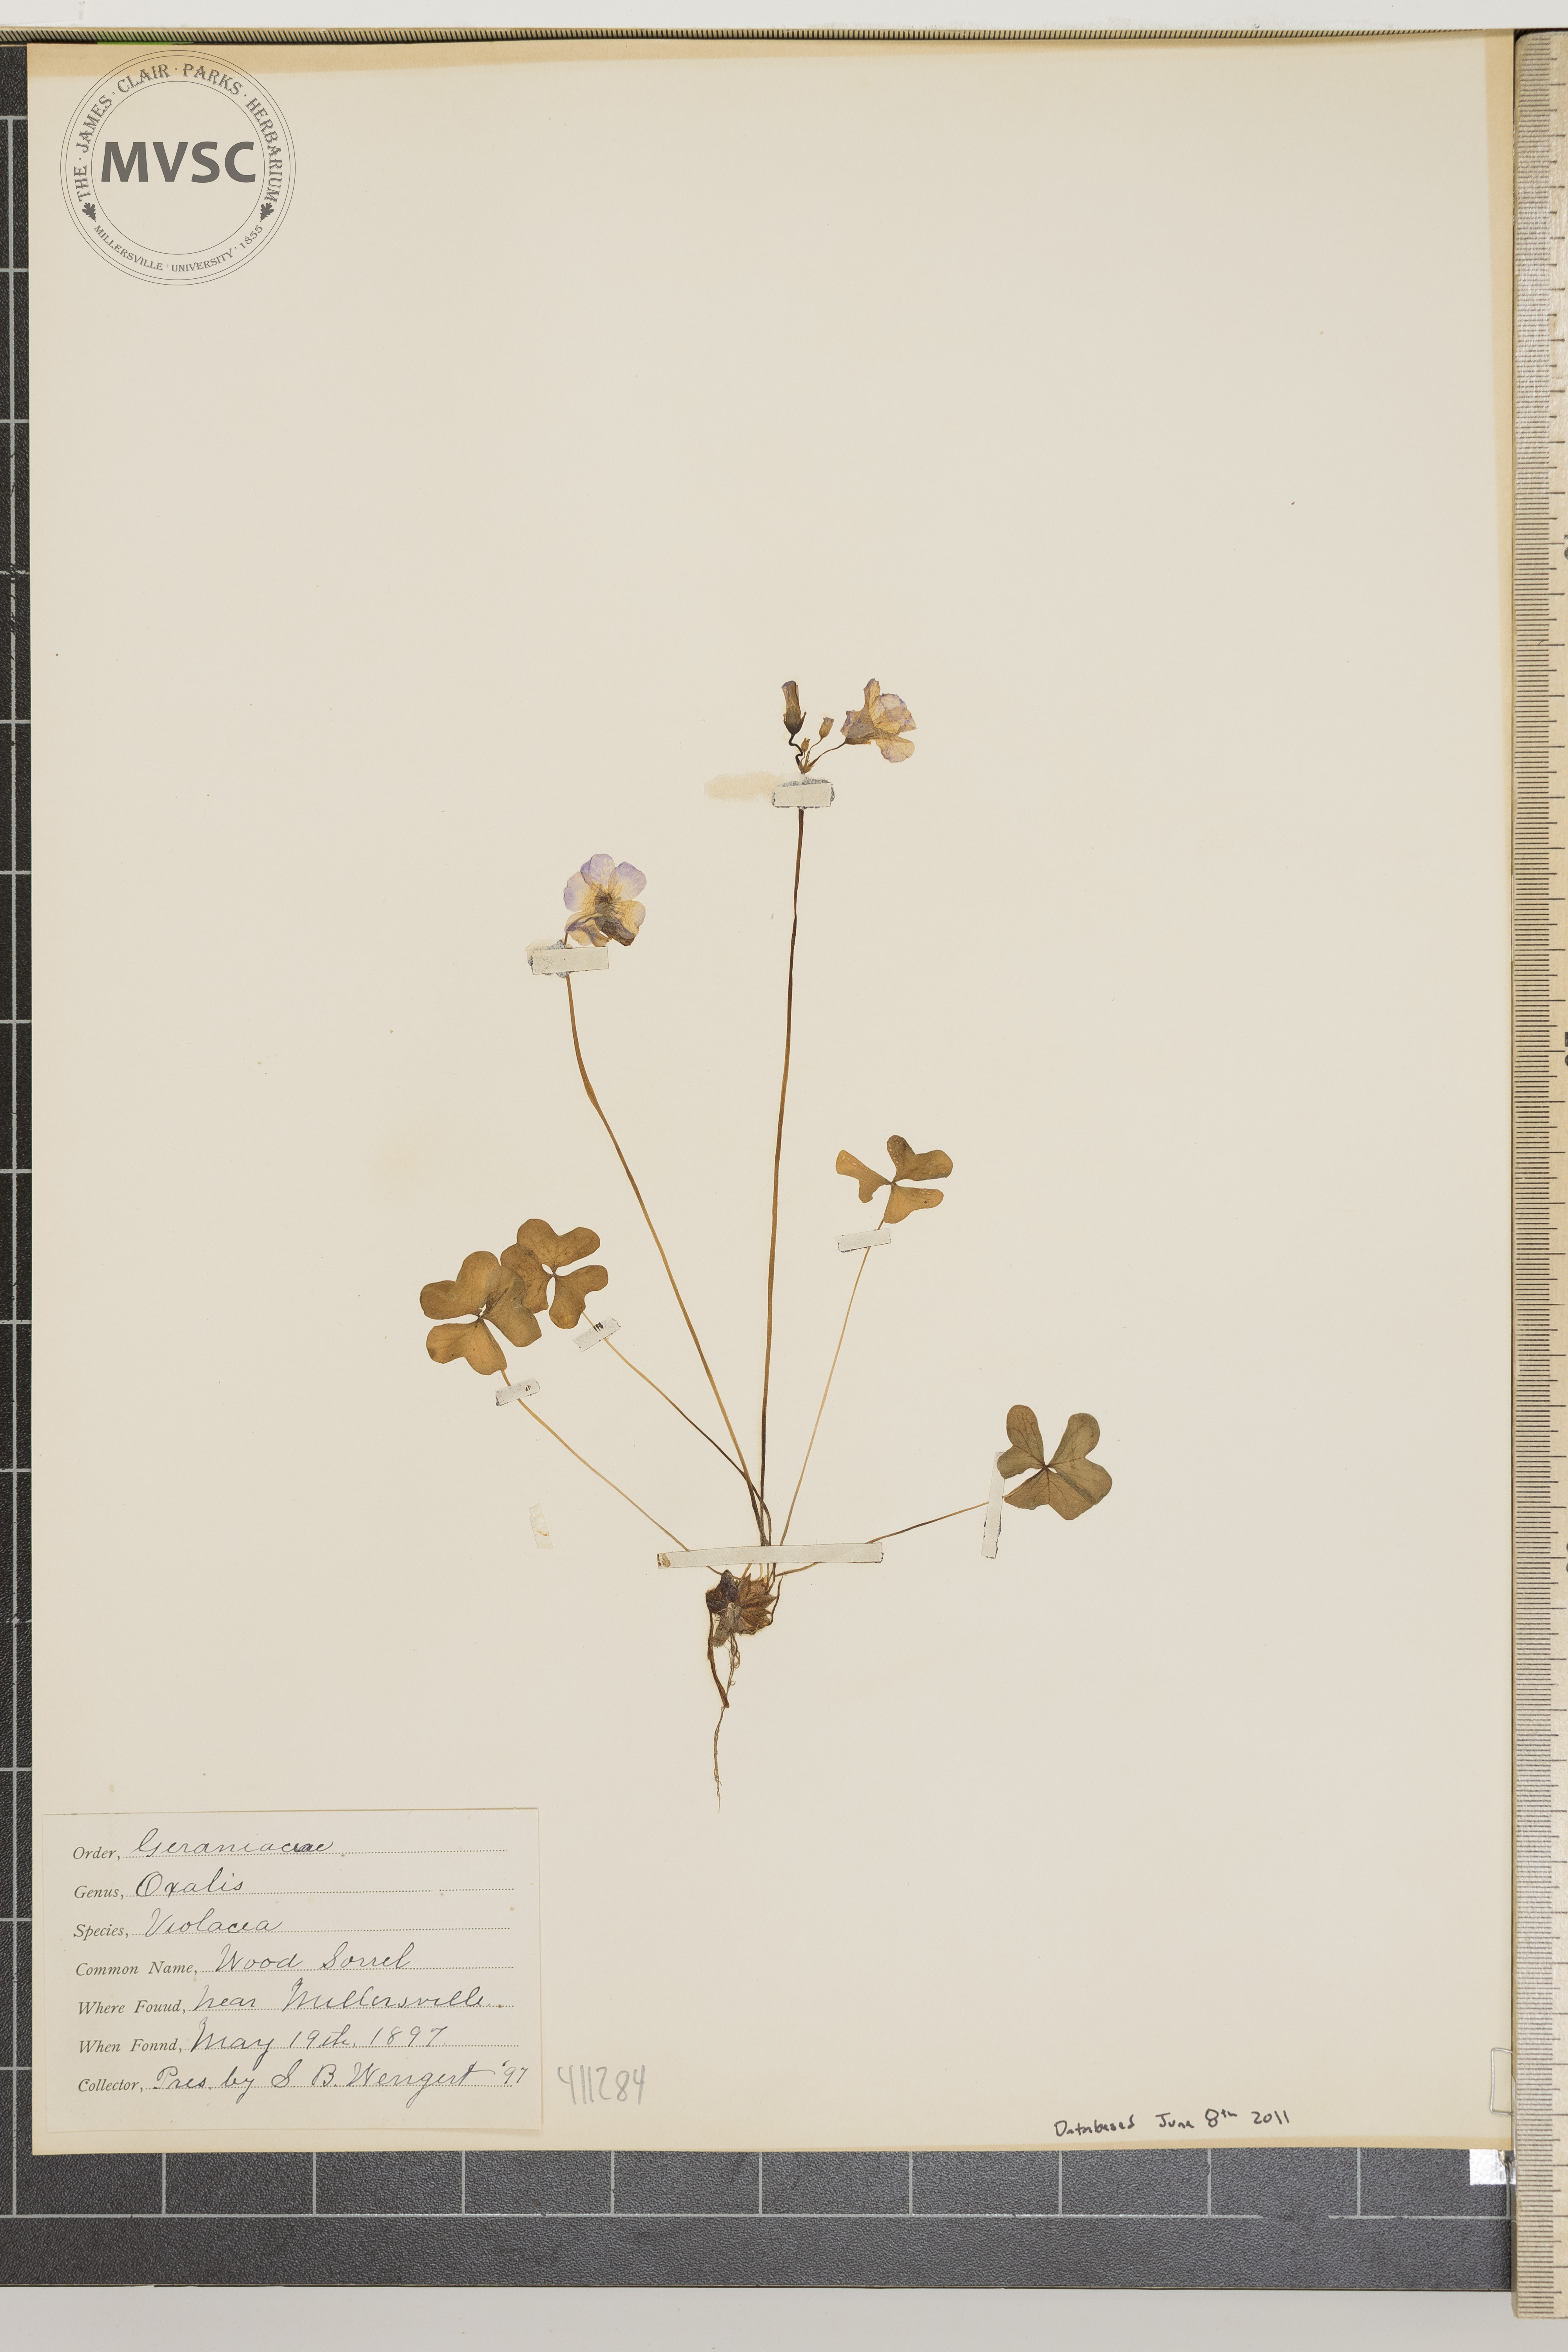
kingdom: Plantae
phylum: Tracheophyta
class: Magnoliopsida
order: Oxalidales
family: Oxalidaceae
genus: Oxalis
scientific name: Oxalis violacea
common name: Violet wood-sorrel
